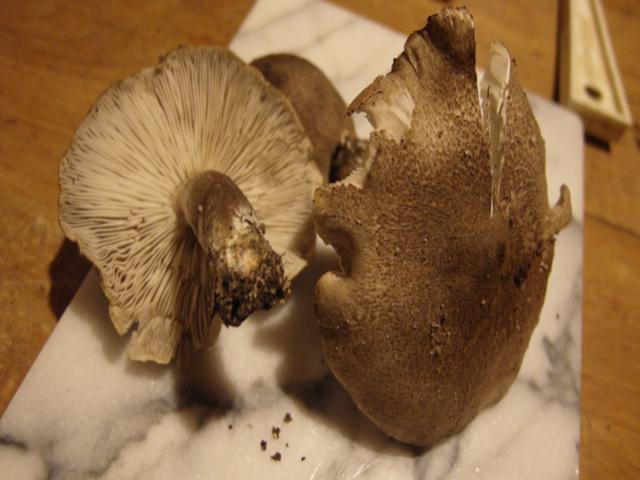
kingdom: Fungi
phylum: Basidiomycota
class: Agaricomycetes
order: Agaricales
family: Tricholomataceae
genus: Tricholoma
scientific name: Tricholoma terreum
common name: jordfarvet ridderhat
